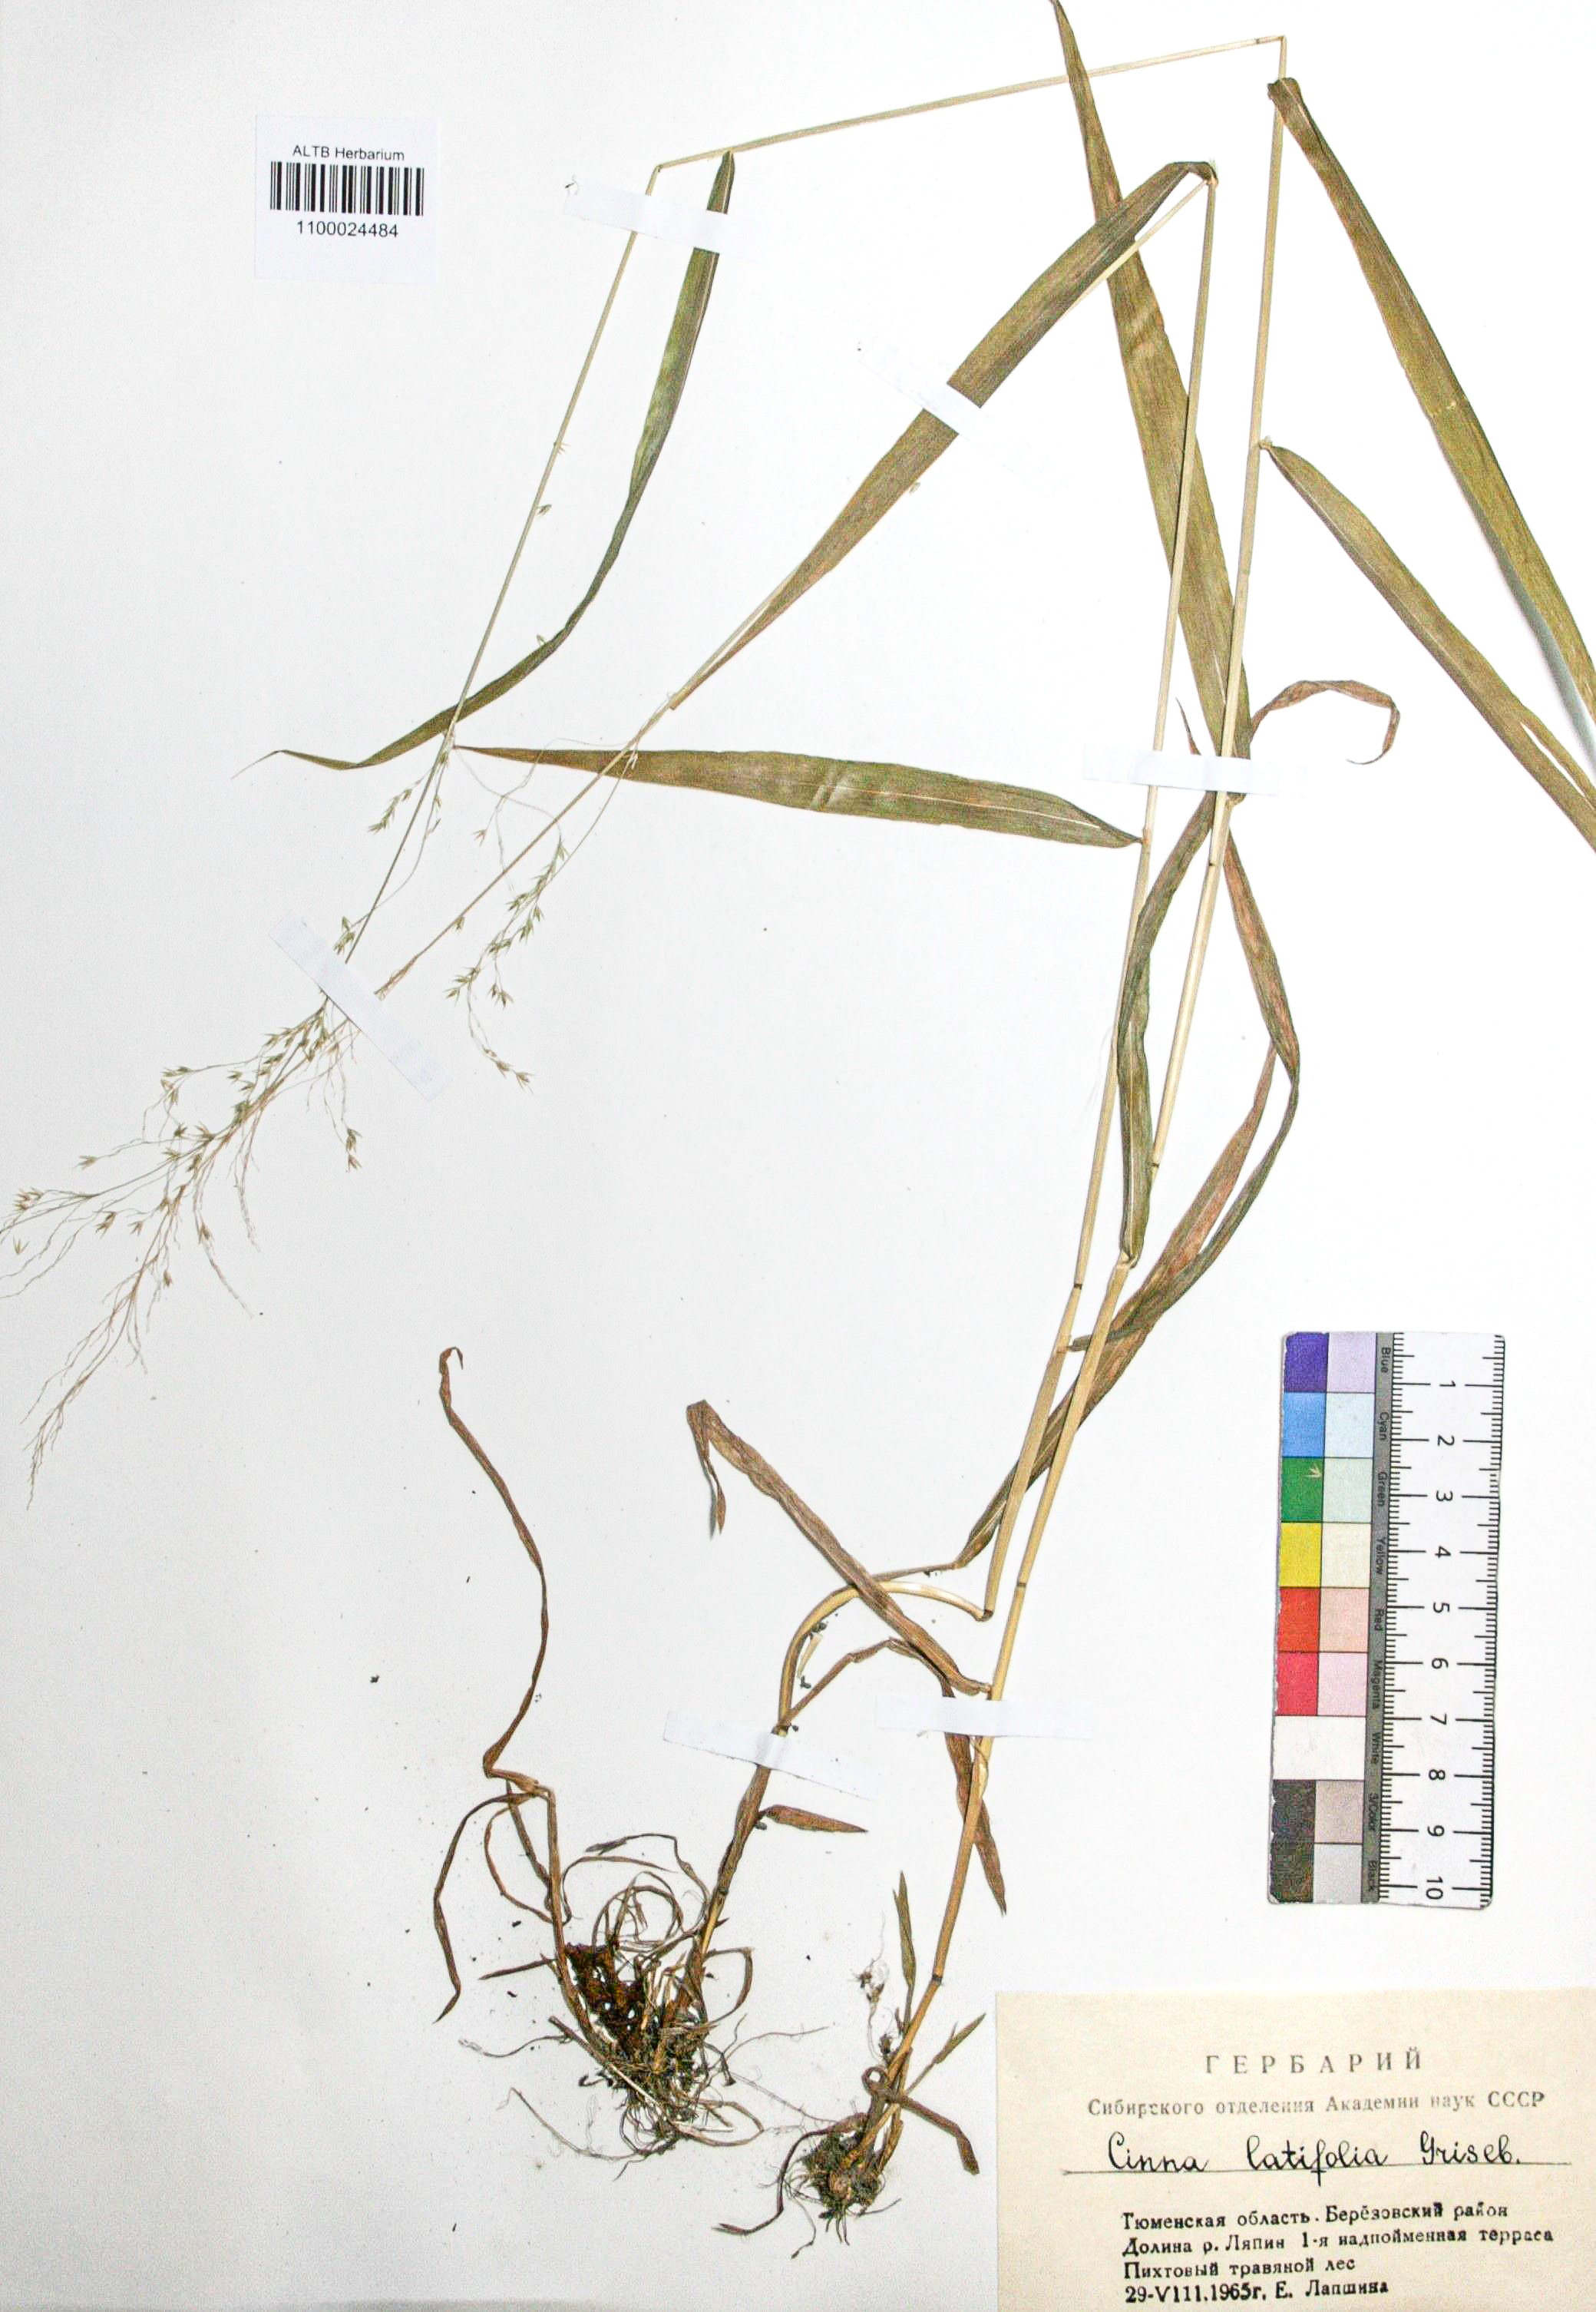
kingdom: Plantae
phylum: Tracheophyta
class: Liliopsida
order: Poales
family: Poaceae
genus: Cinna
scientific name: Cinna latifolia
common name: Drooping woodreed
